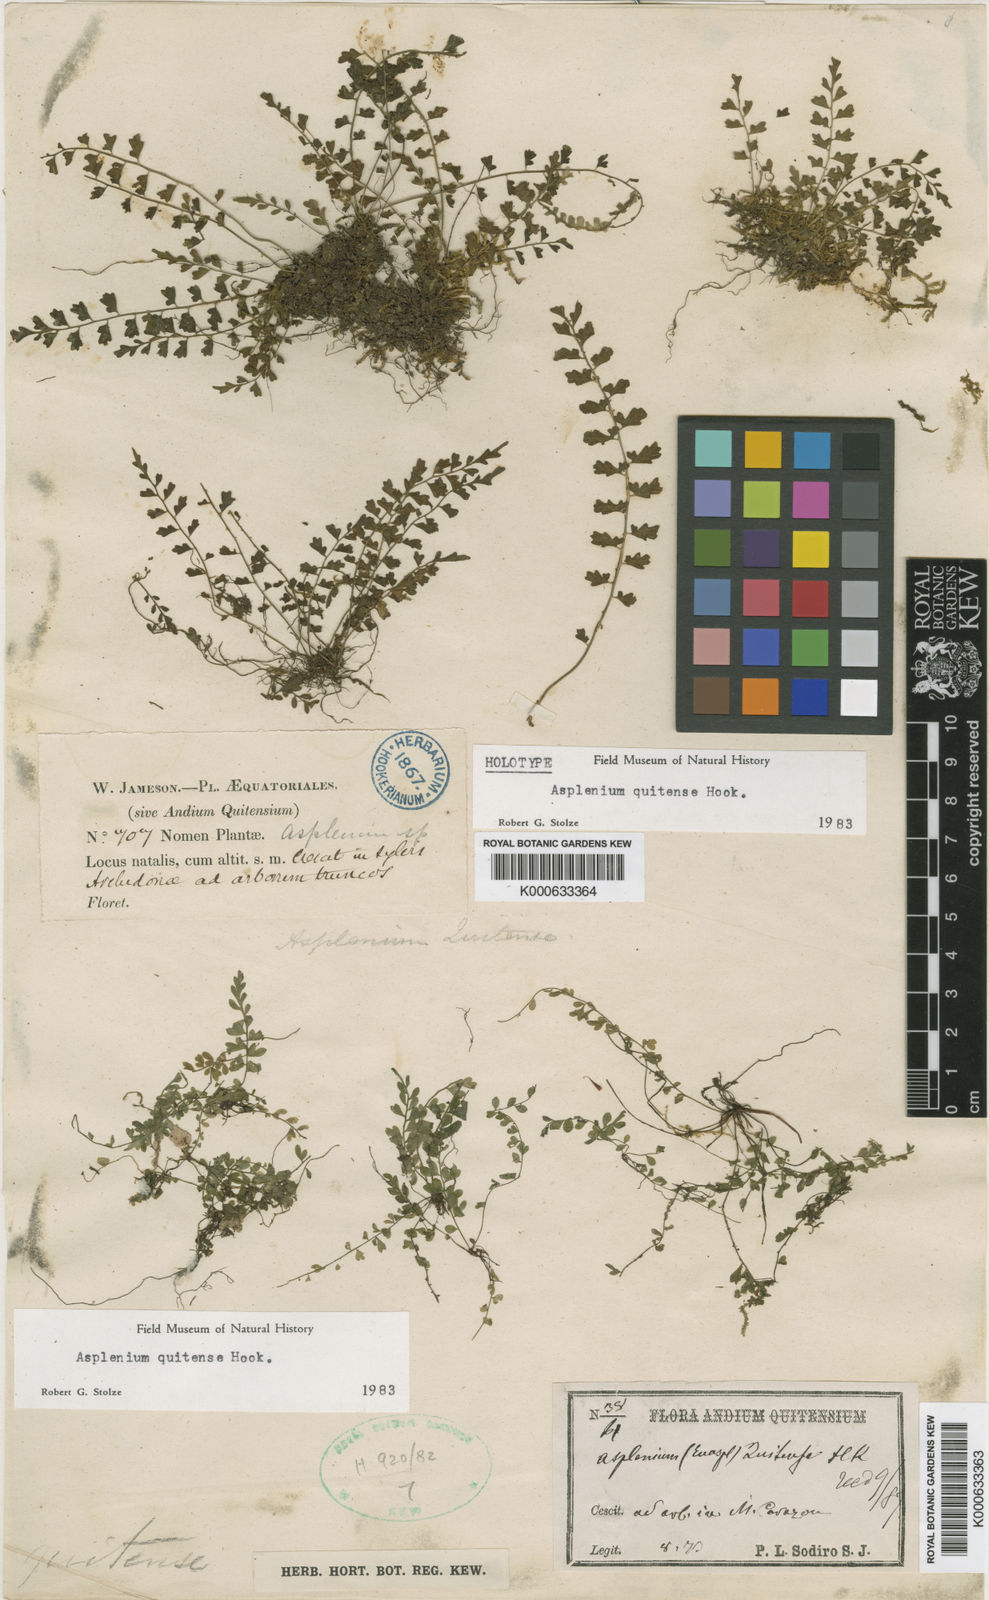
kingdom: Plantae
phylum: Tracheophyta
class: Polypodiopsida
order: Polypodiales
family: Aspleniaceae
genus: Asplenium
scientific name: Asplenium quitense
